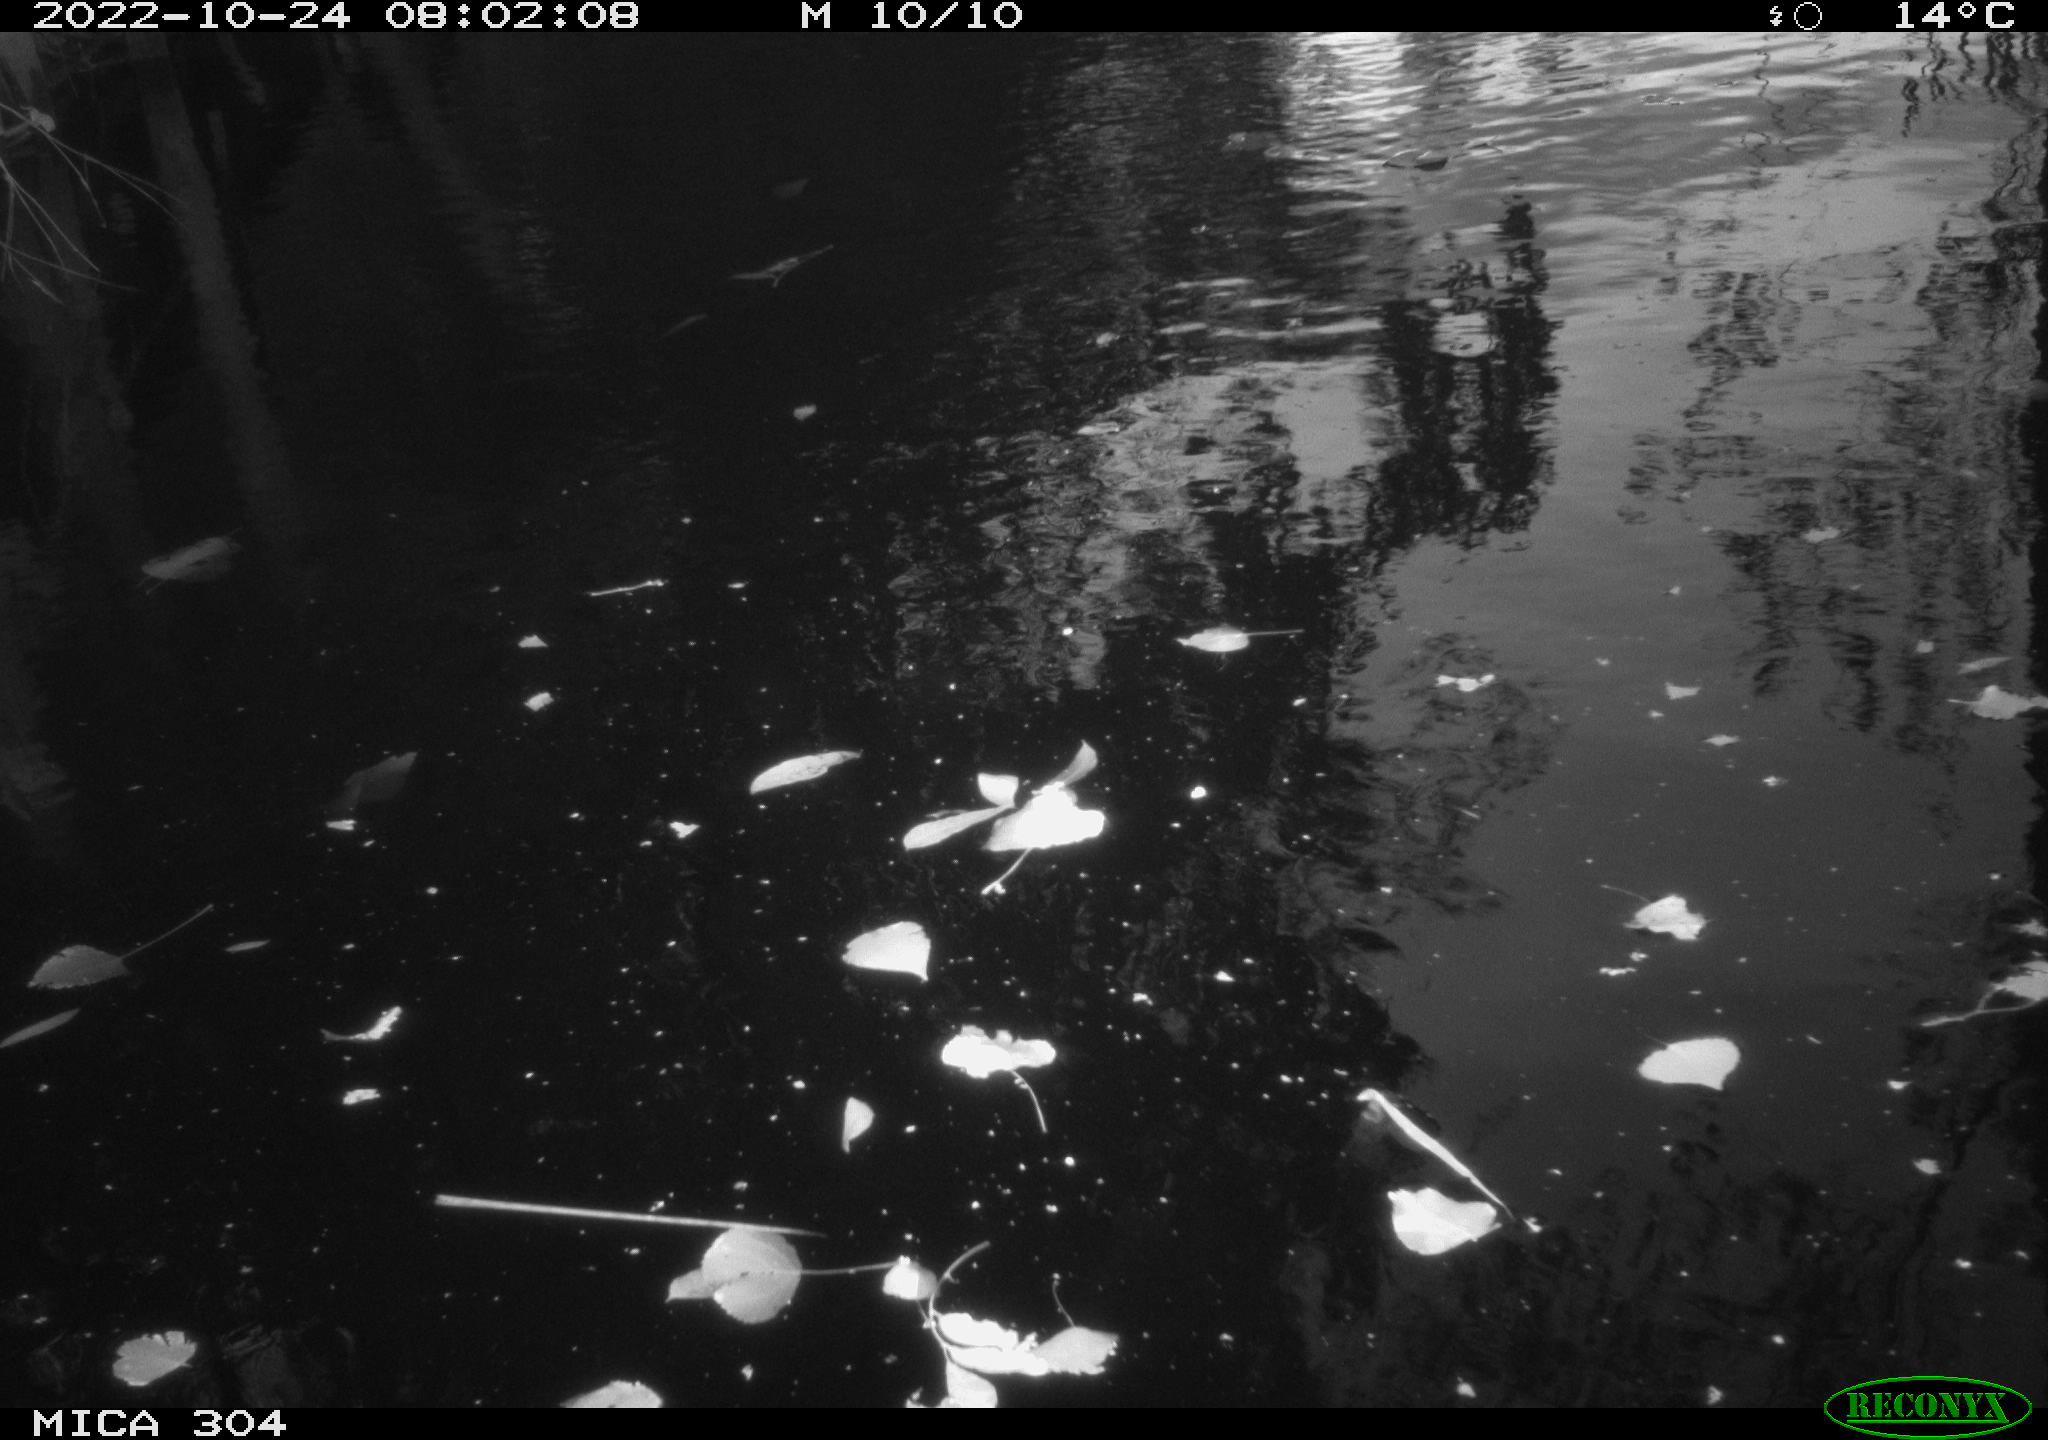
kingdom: Animalia
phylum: Chordata
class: Aves
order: Gruiformes
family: Rallidae
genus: Gallinula
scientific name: Gallinula chloropus
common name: Common moorhen
